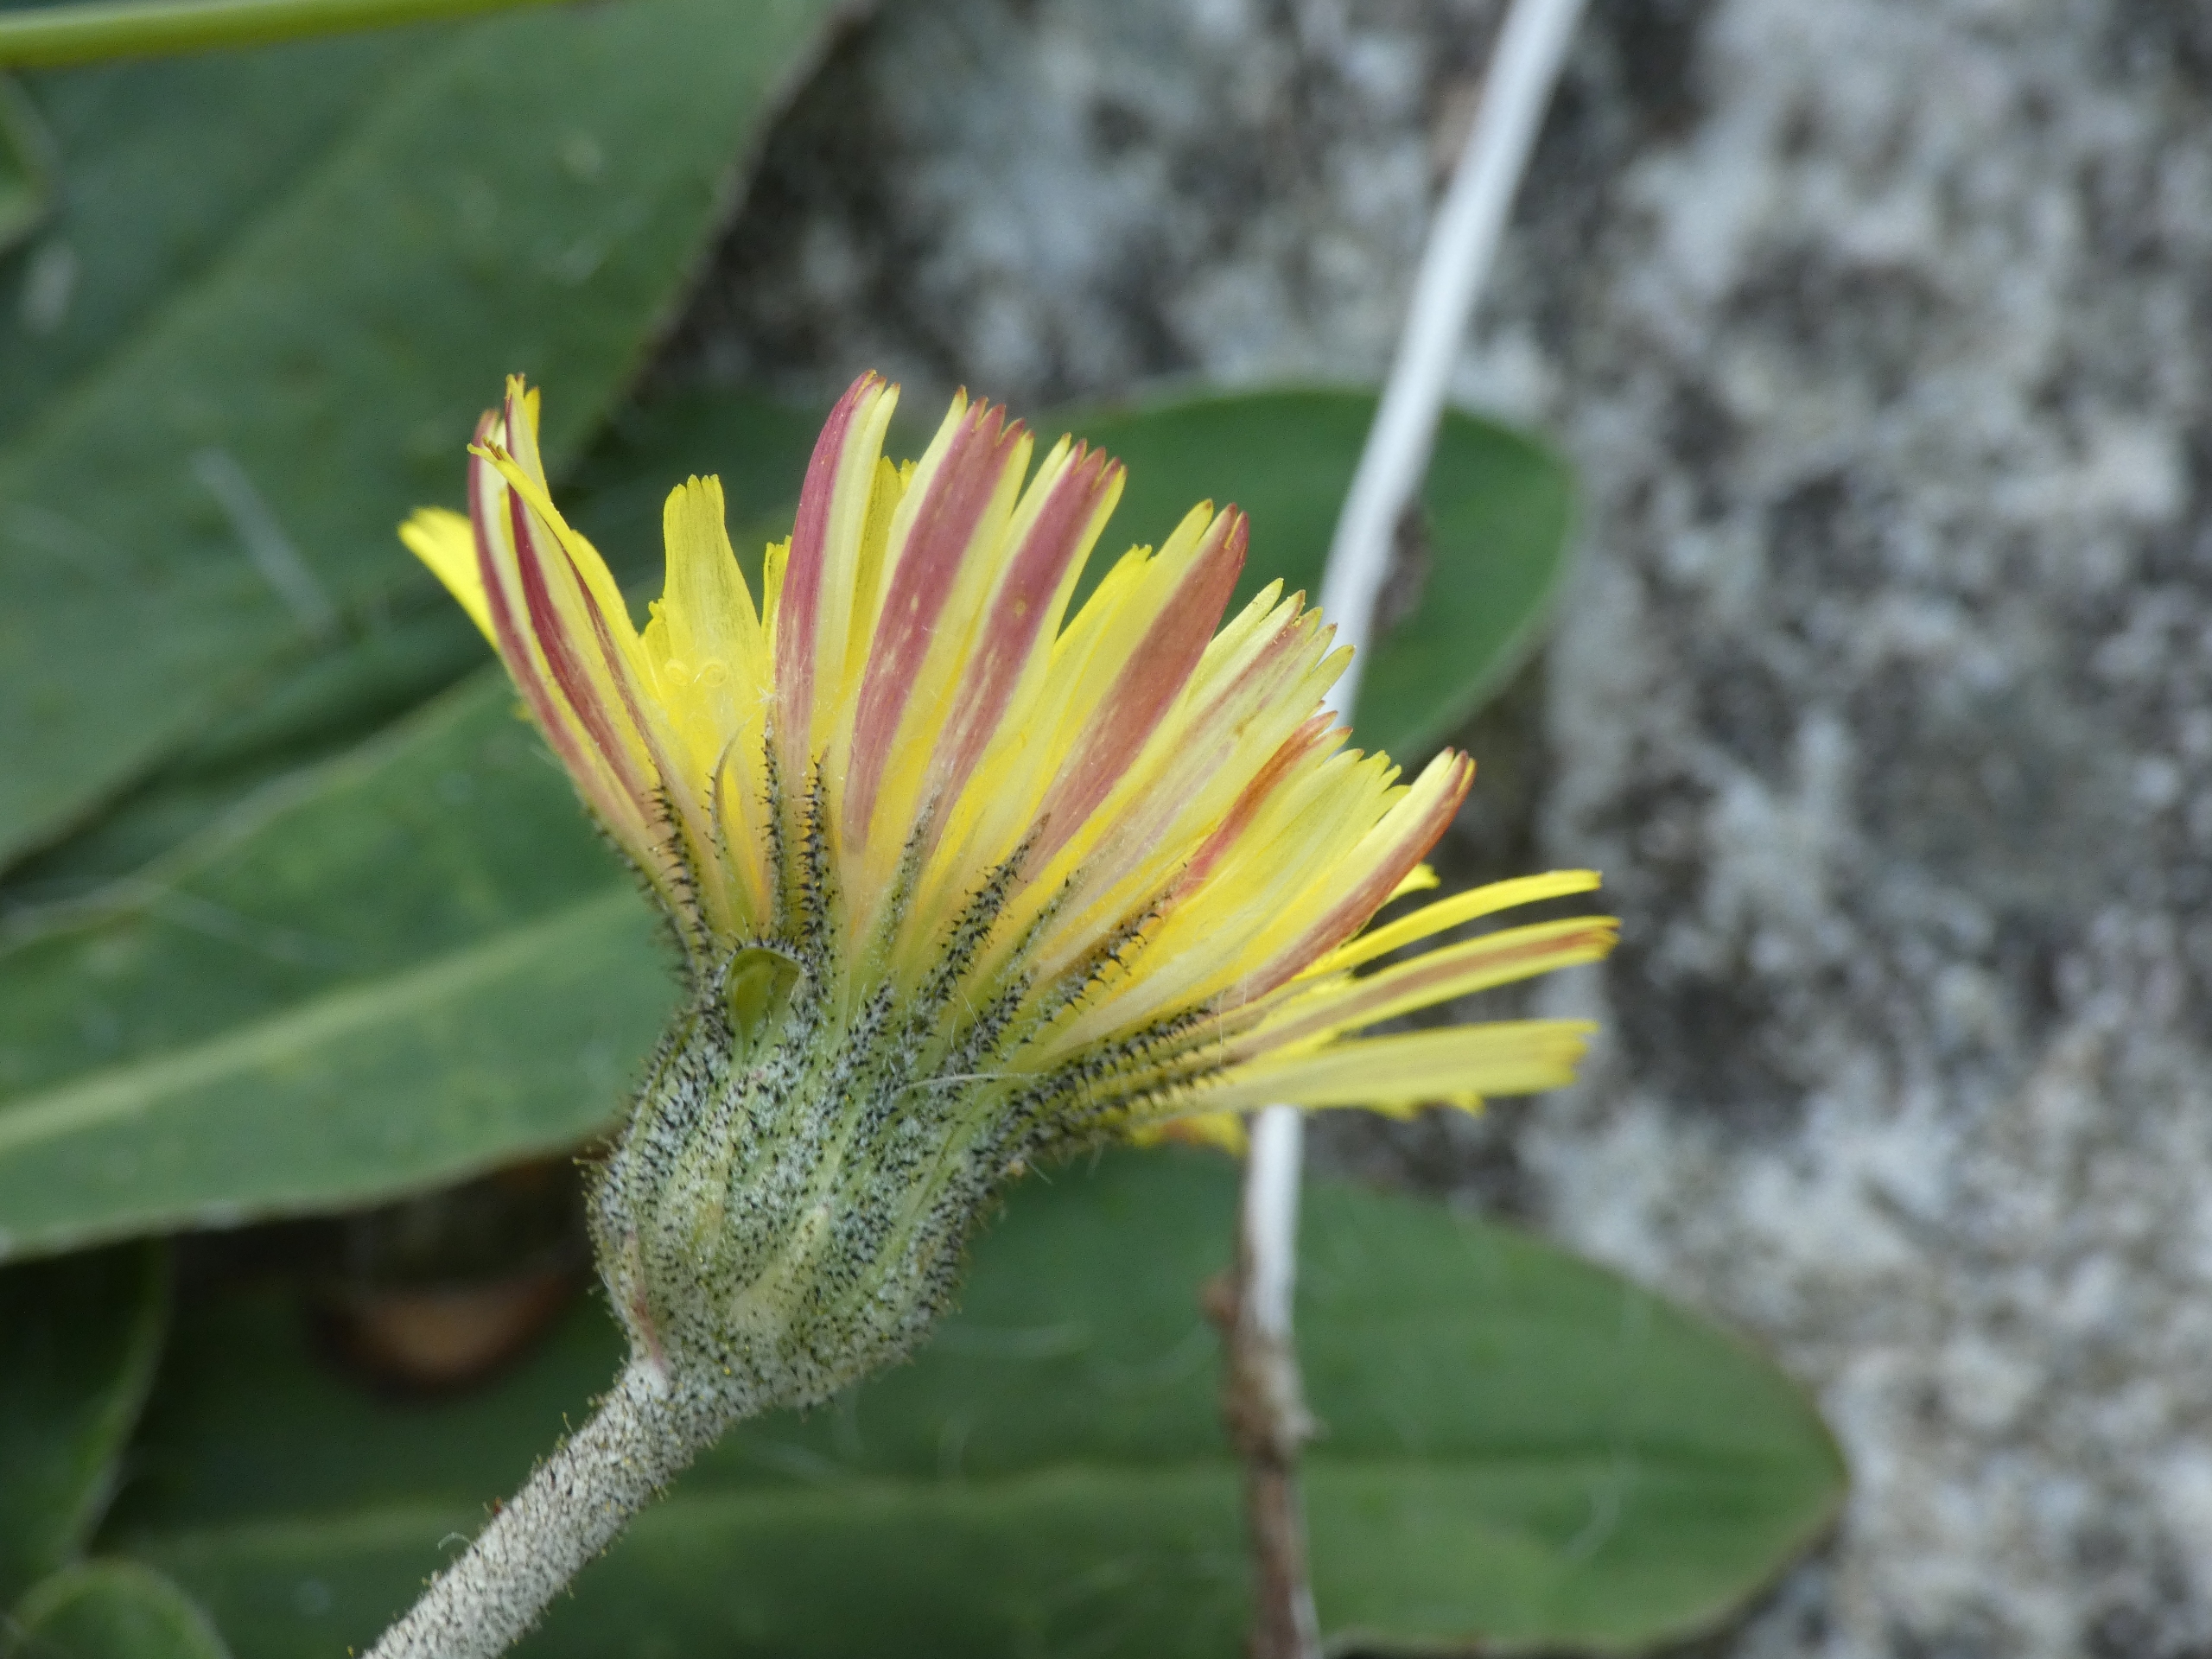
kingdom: Plantae
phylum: Tracheophyta
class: Magnoliopsida
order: Asterales
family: Asteraceae
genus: Pilosella
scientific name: Pilosella officinarum
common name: Håret høgeurt
